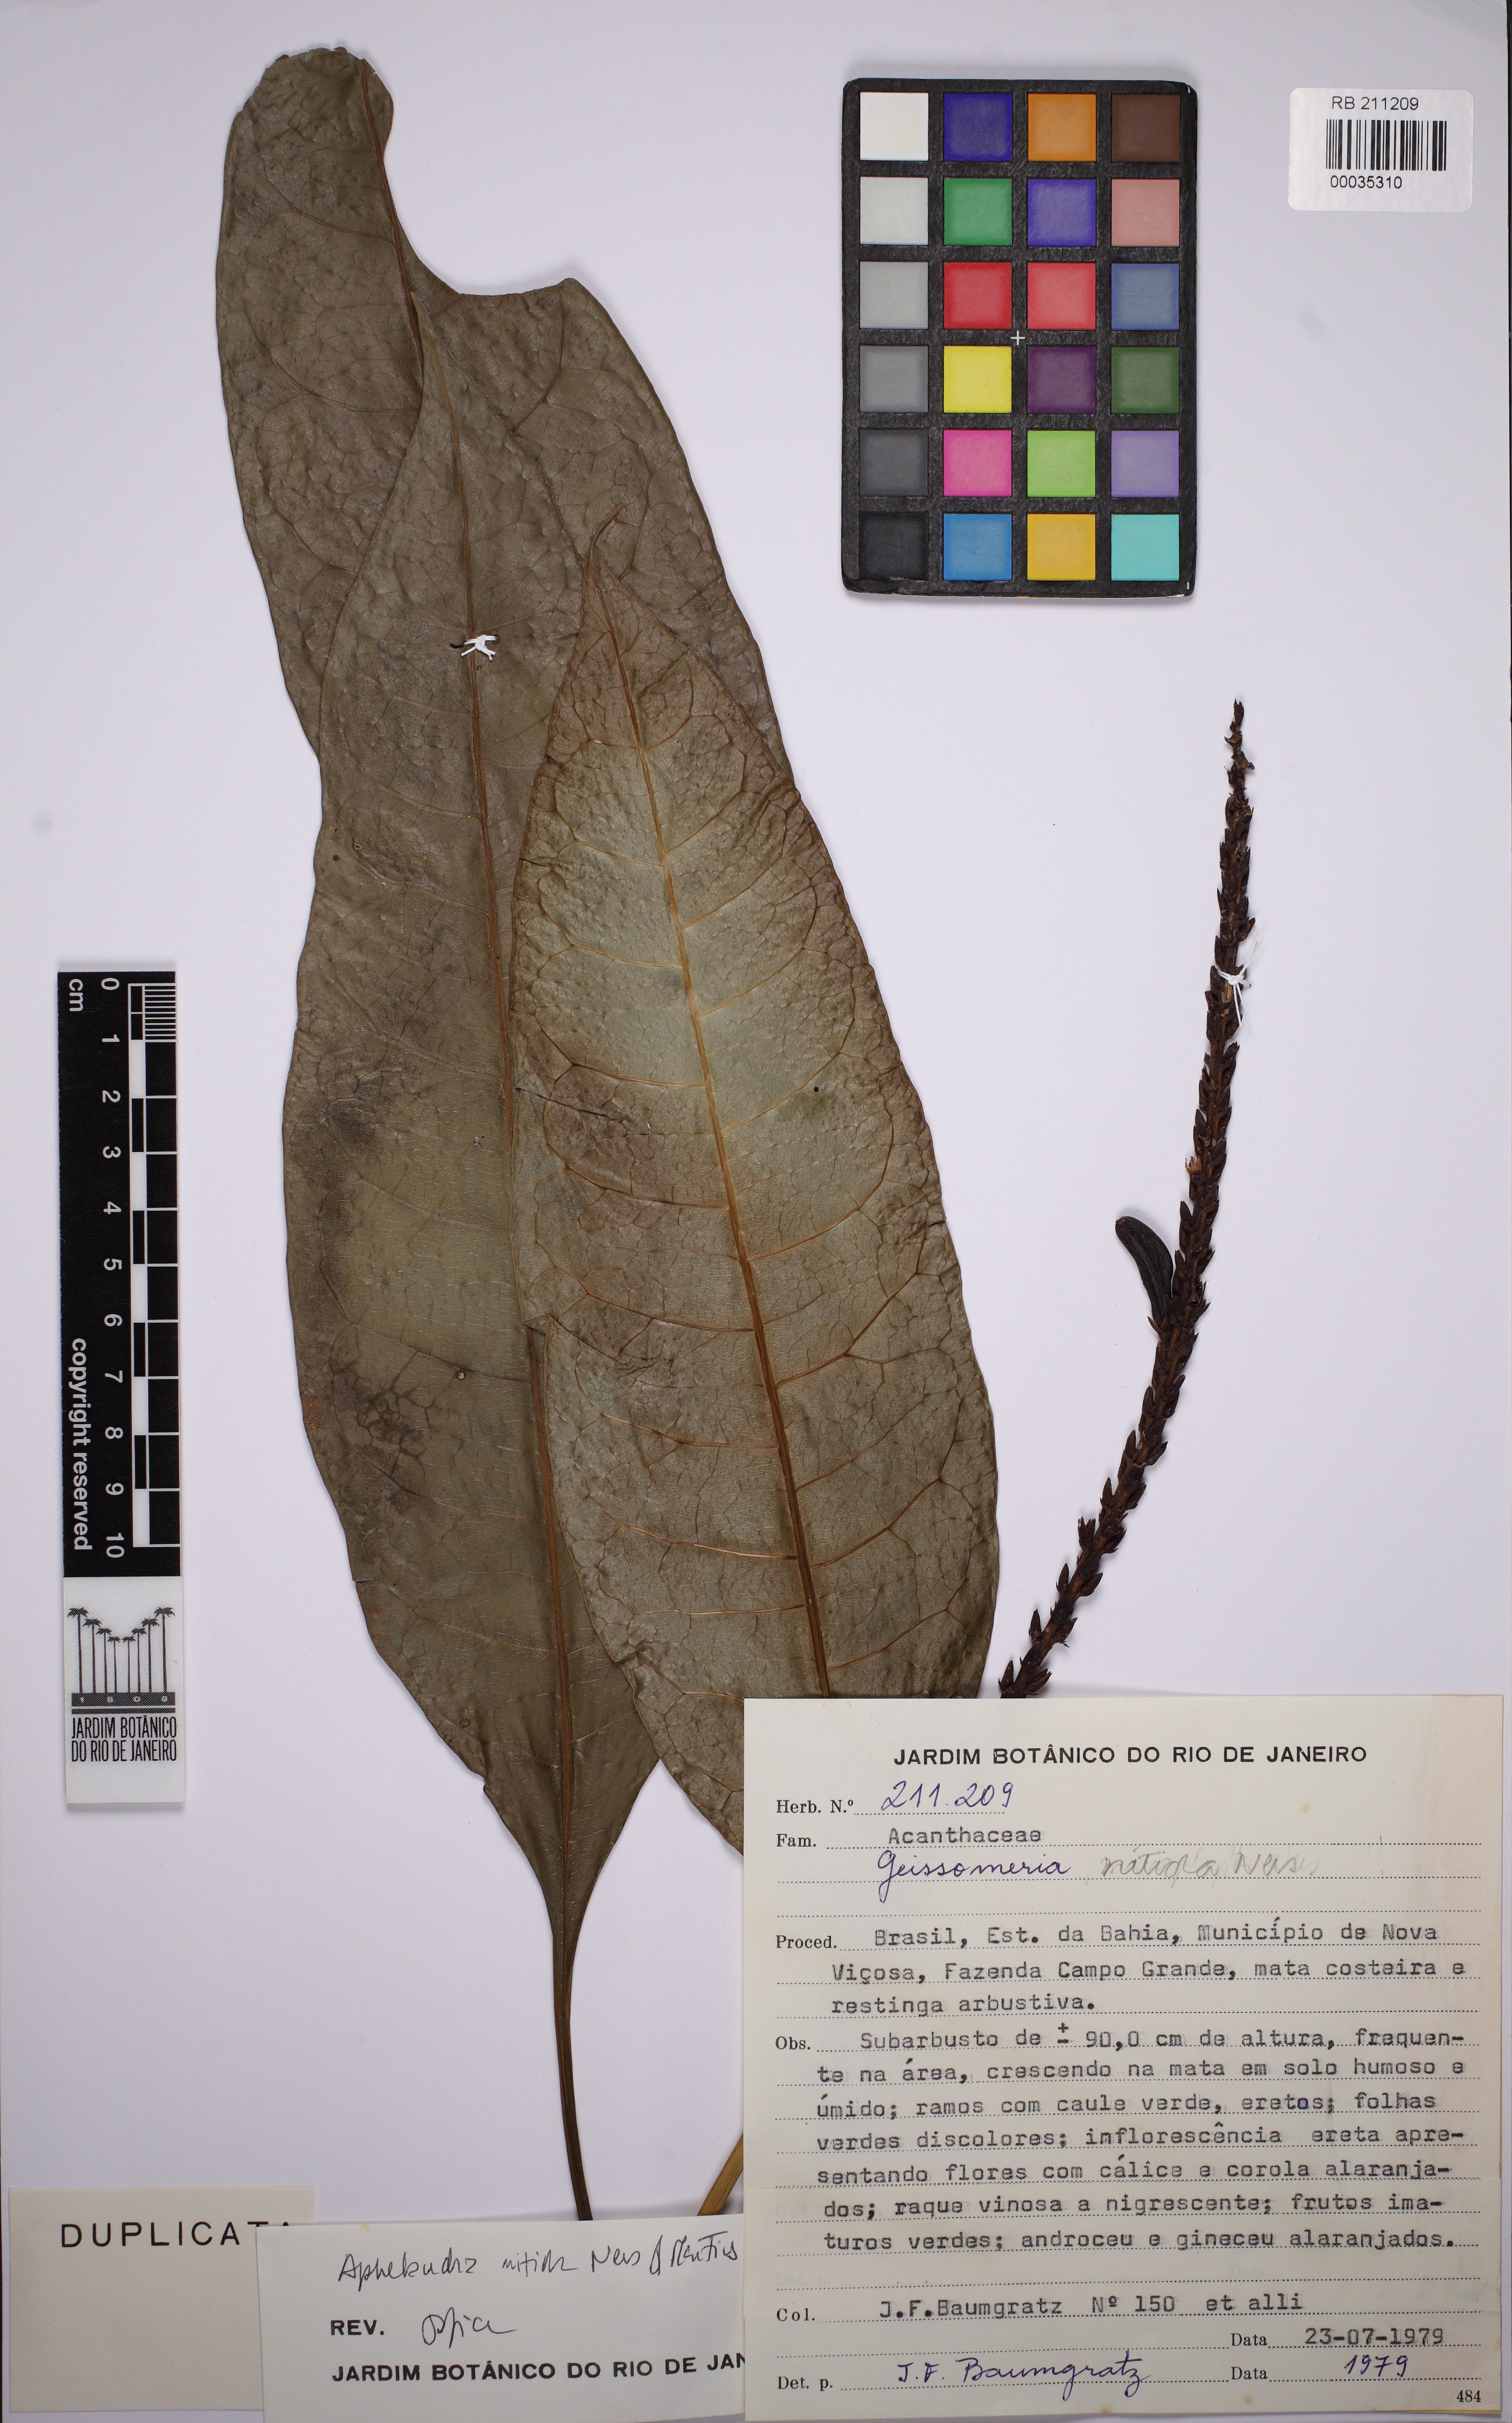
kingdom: Plantae
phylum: Tracheophyta
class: Magnoliopsida
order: Lamiales
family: Acanthaceae
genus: Aphelandra
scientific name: Aphelandra nitida
